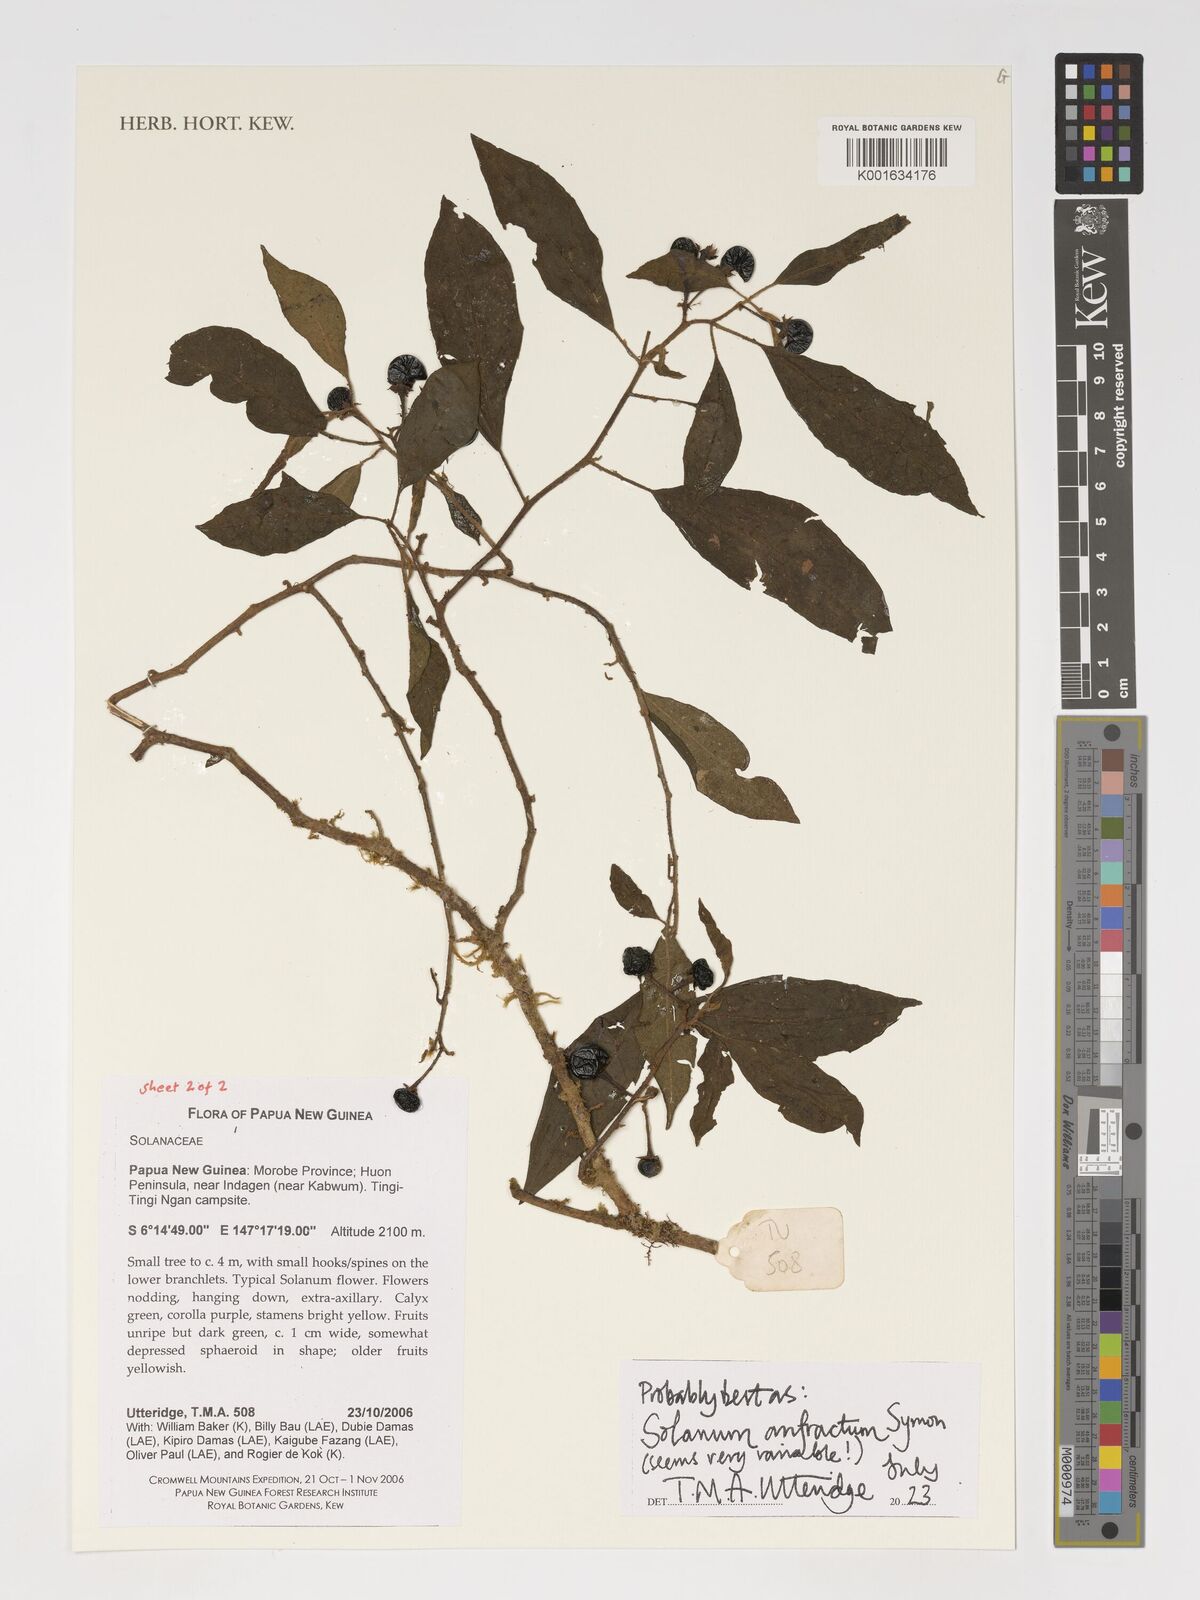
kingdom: Plantae
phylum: Tracheophyta
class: Magnoliopsida
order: Solanales
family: Solanaceae
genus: Solanum
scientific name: Solanum anfractum
